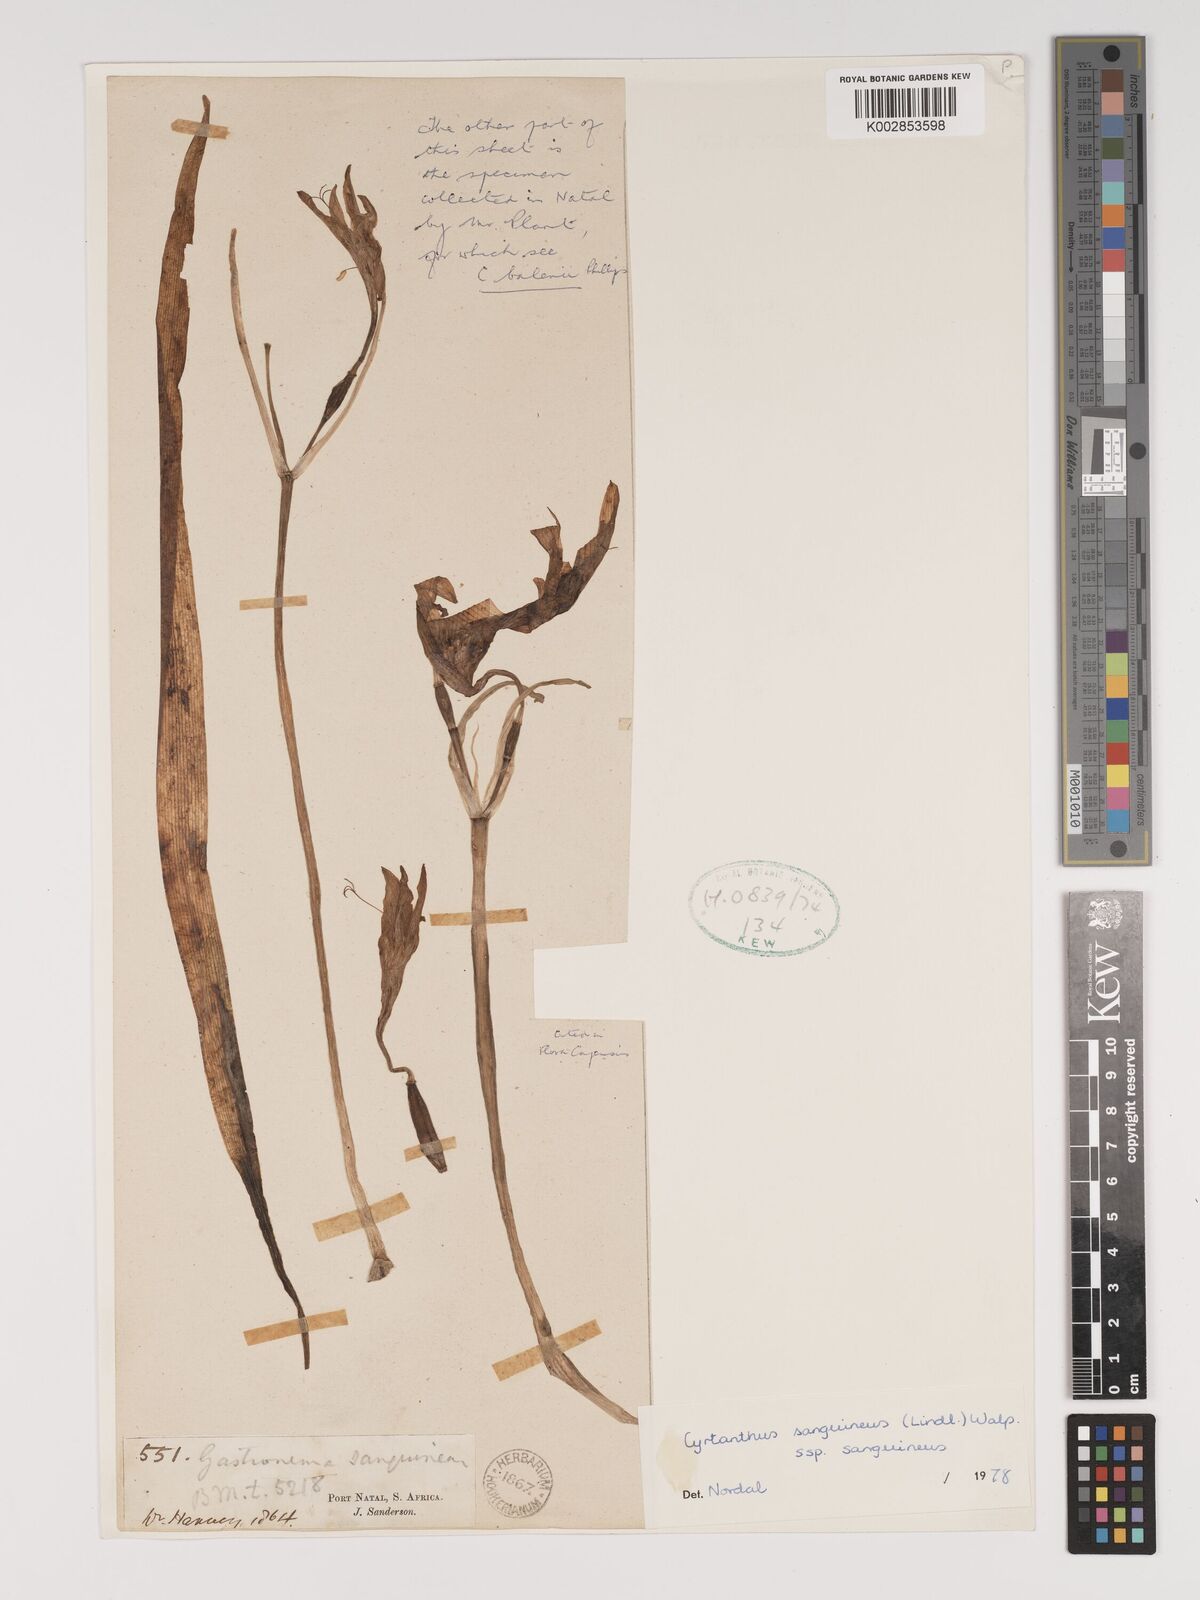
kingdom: Plantae
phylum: Tracheophyta
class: Liliopsida
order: Asparagales
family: Amaryllidaceae
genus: Cyrtanthus
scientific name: Cyrtanthus sanguineus
